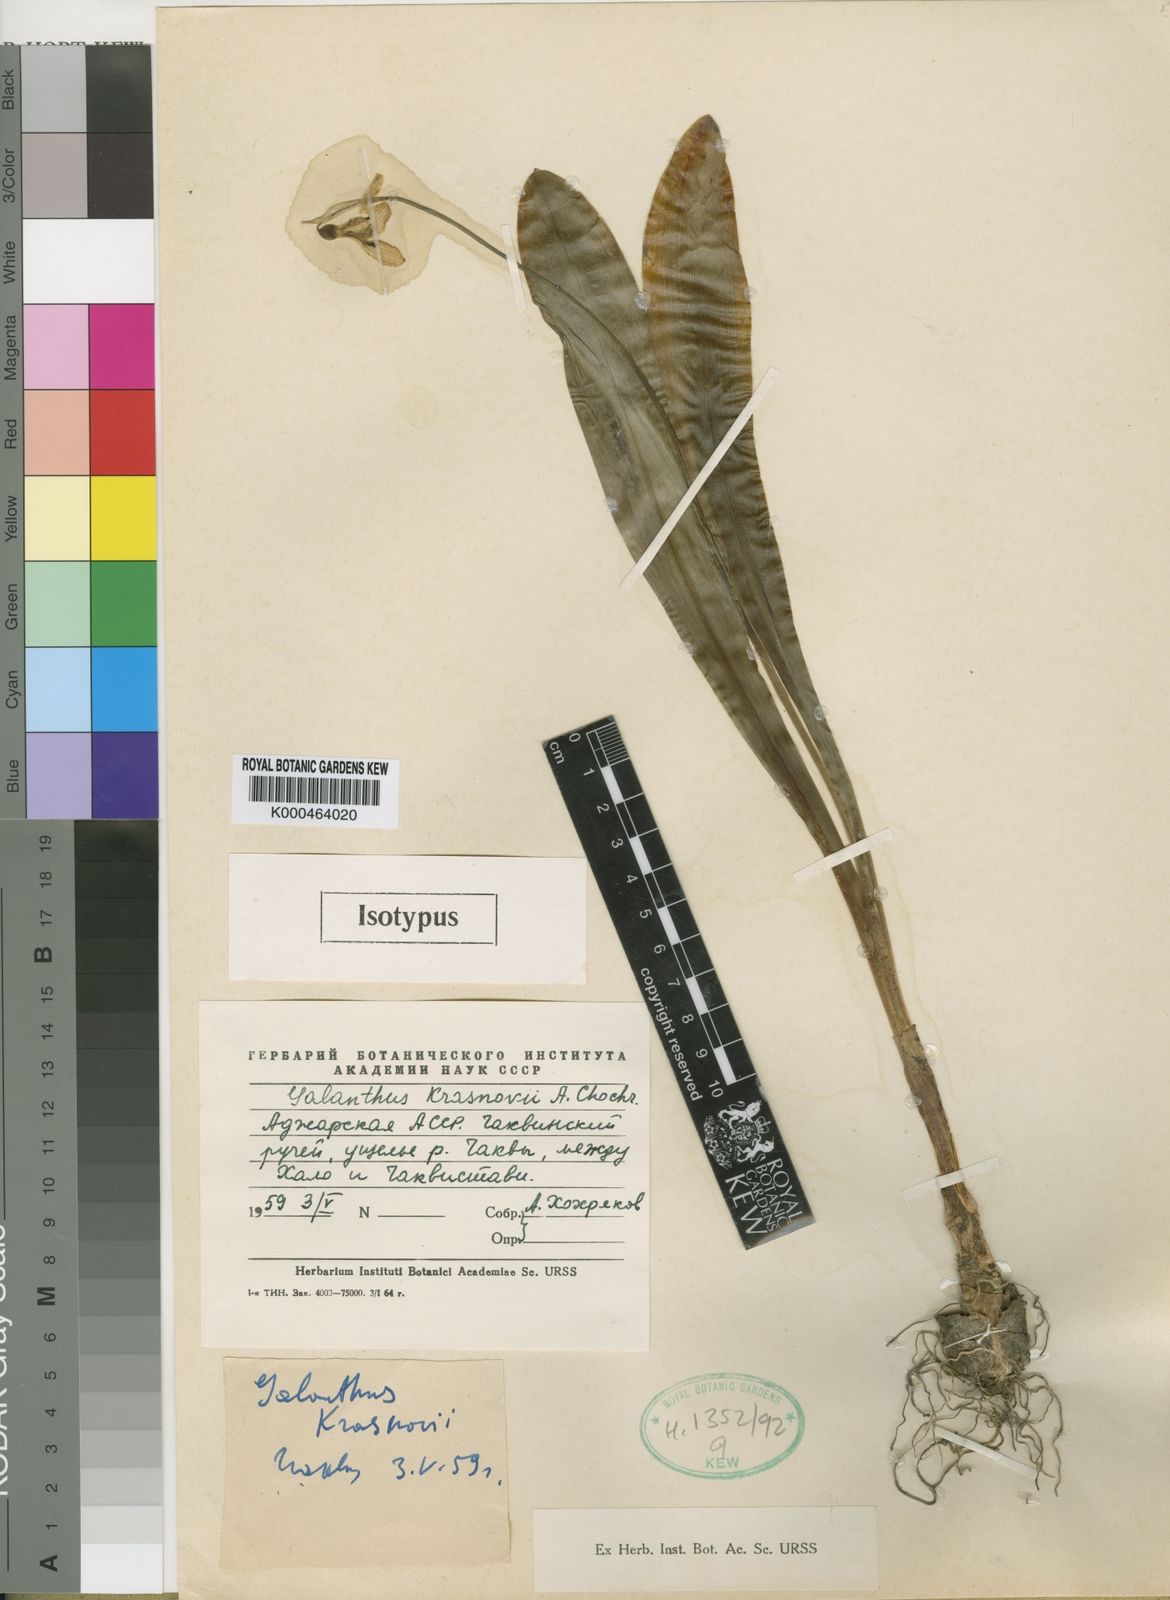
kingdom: Plantae
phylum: Tracheophyta
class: Liliopsida
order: Asparagales
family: Amaryllidaceae
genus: Galanthus
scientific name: Galanthus krasnovii
